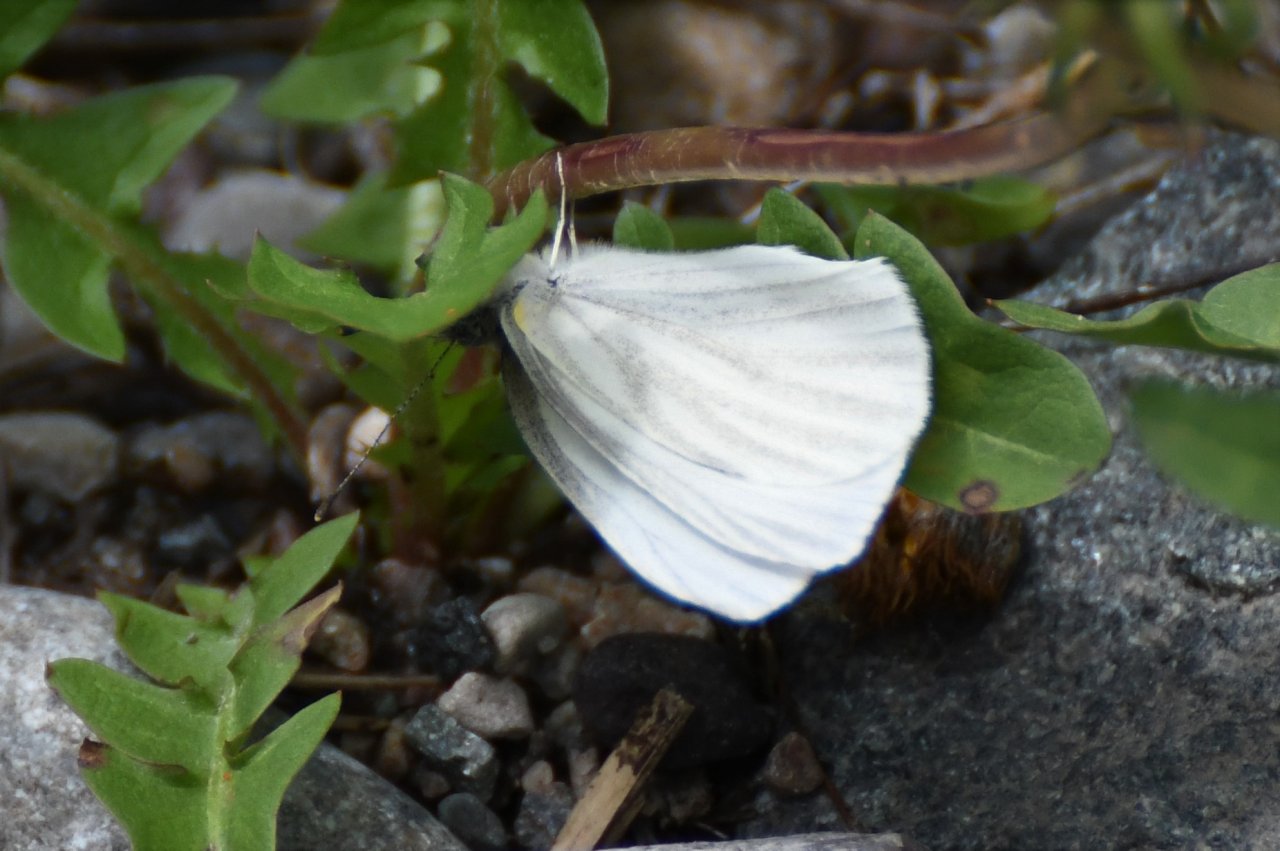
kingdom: Animalia
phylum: Arthropoda
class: Insecta
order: Lepidoptera
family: Pieridae
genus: Pieris
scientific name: Pieris virginiensis
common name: West Virginia White
